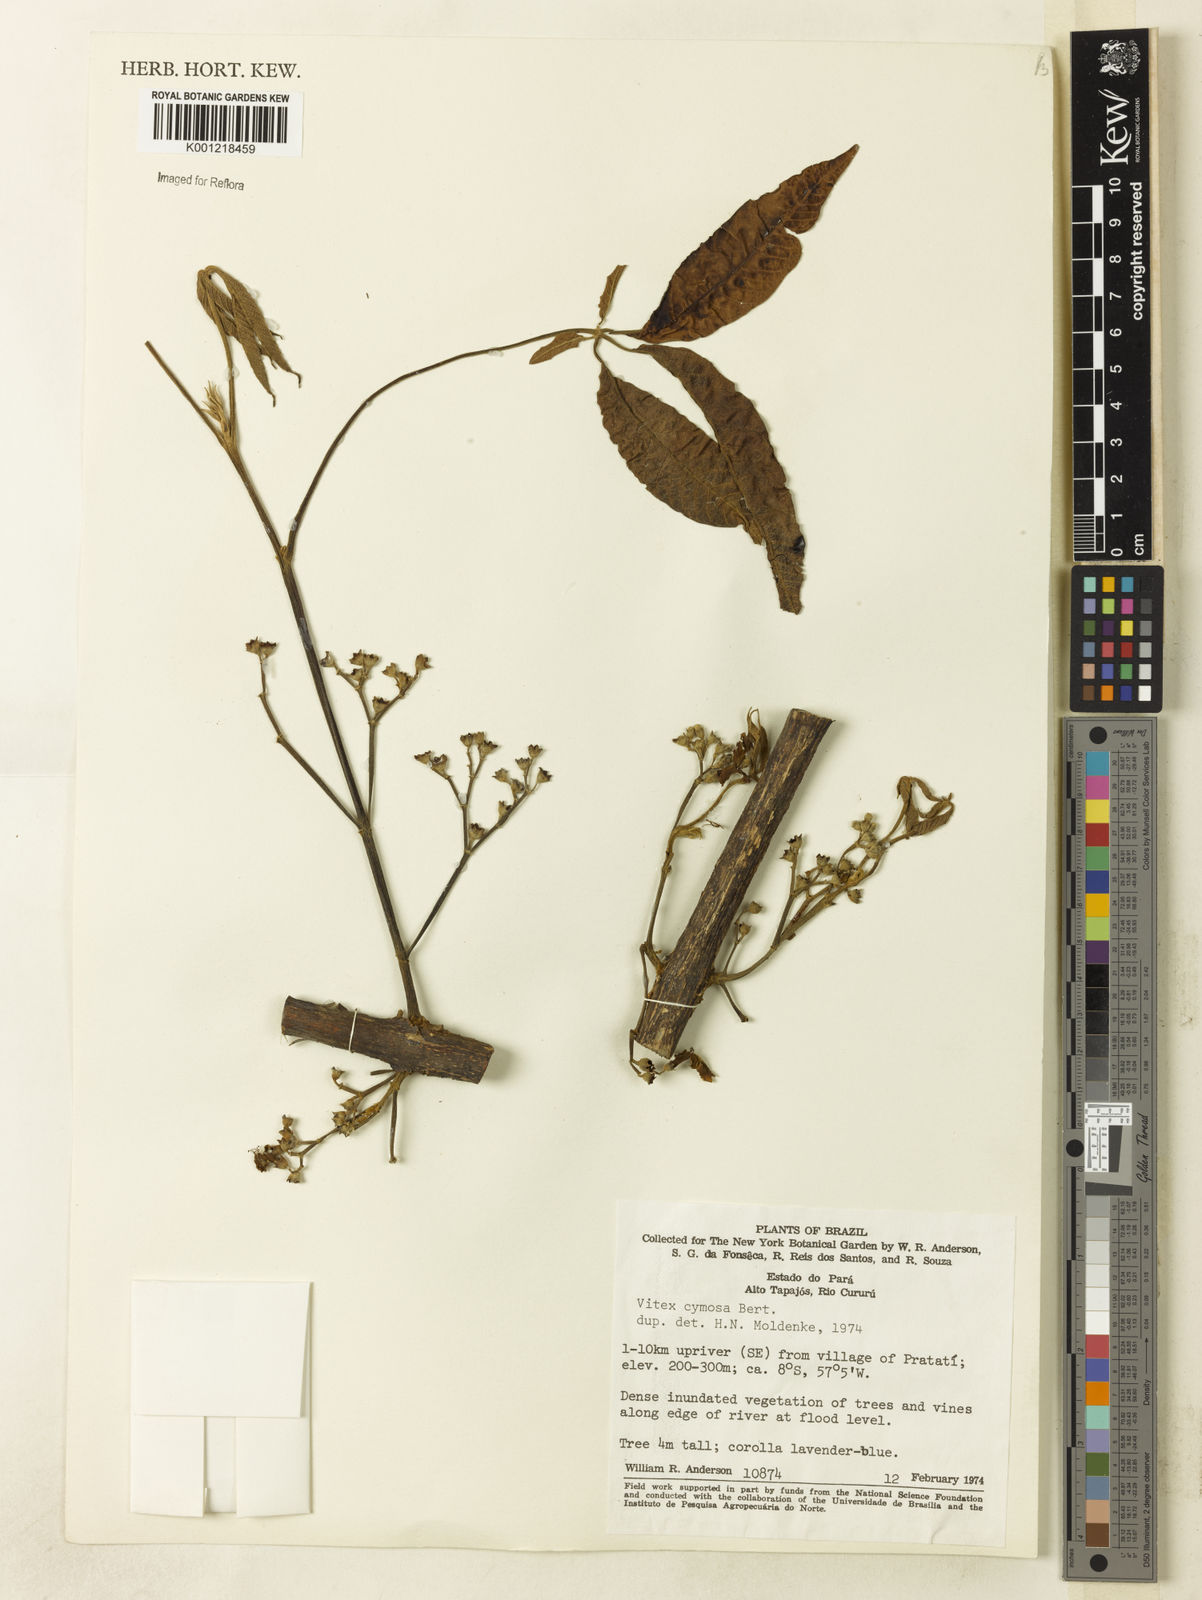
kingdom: Plantae
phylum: Tracheophyta
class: Magnoliopsida
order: Lamiales
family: Lamiaceae
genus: Vitex
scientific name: Vitex cymosa
